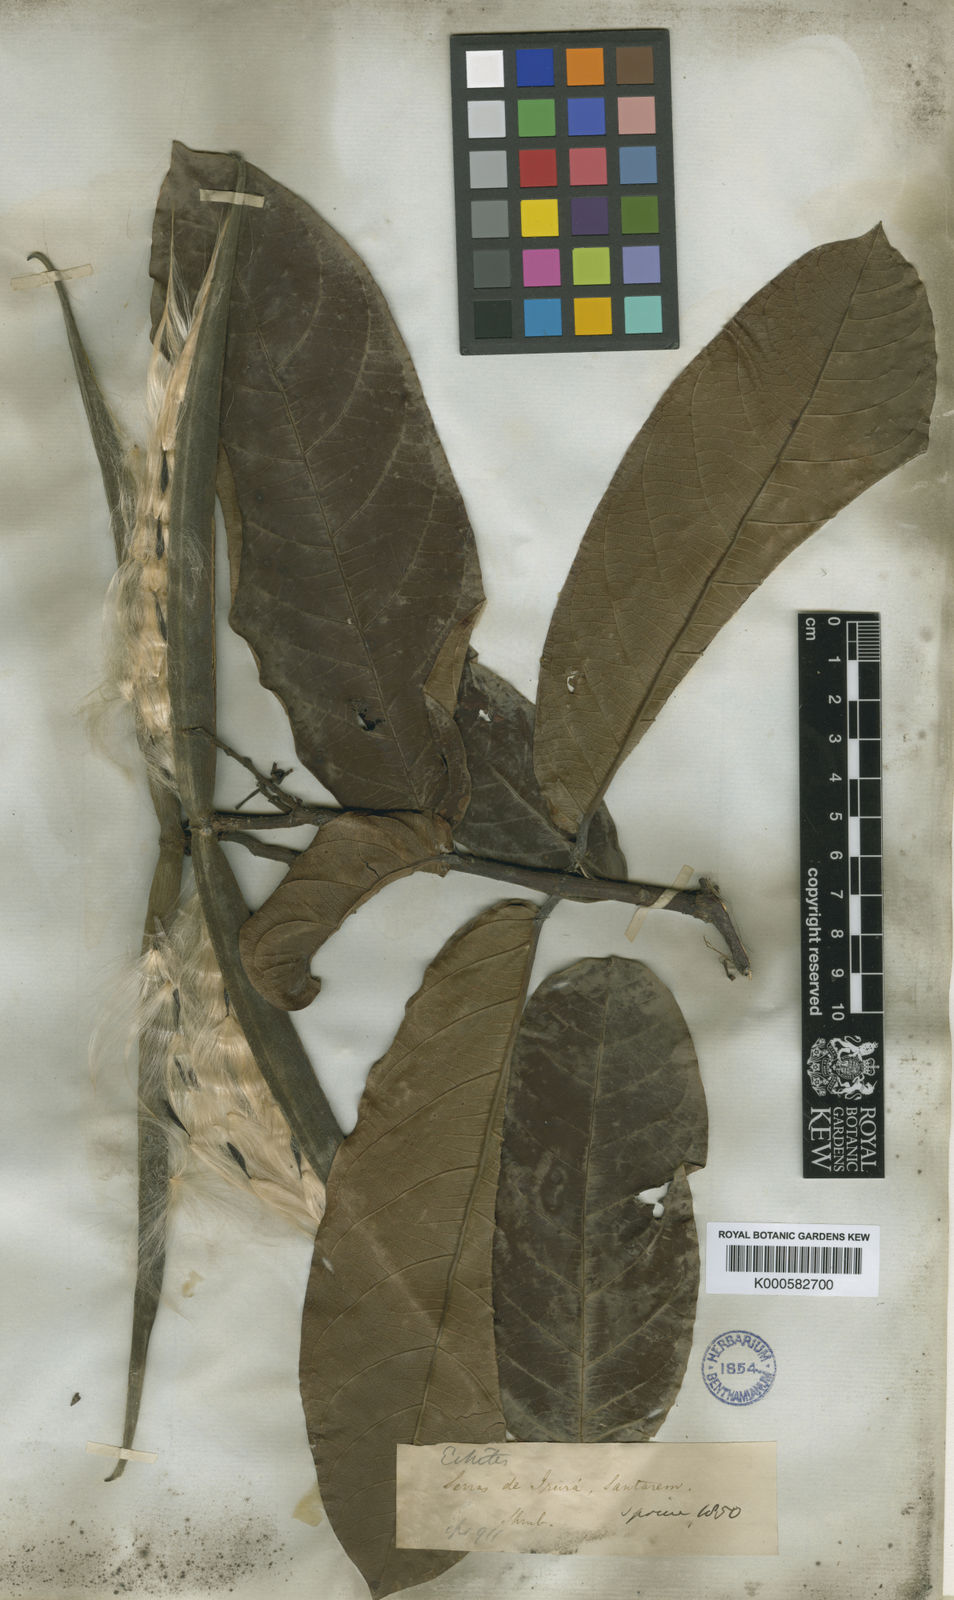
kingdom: Plantae
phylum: Tracheophyta
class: Magnoliopsida
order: Gentianales
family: Apocynaceae
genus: Odontadenia
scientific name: Odontadenia lutea
